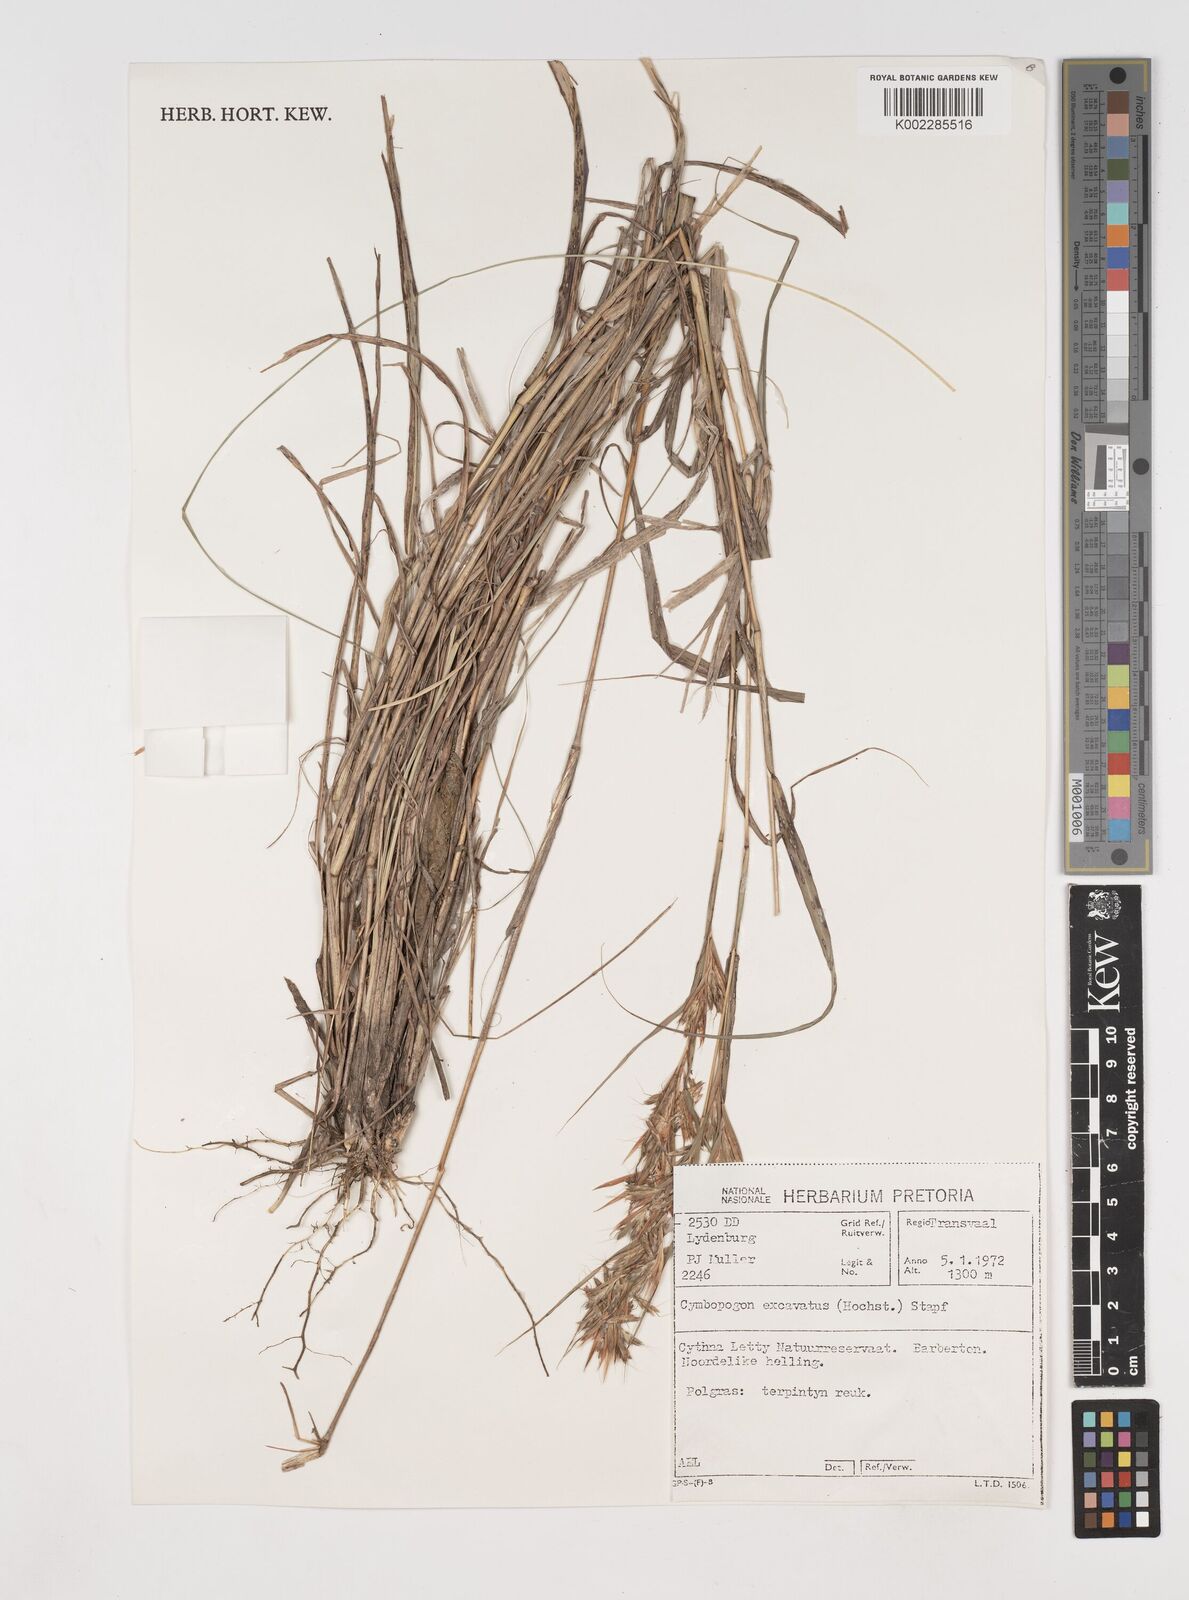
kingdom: Plantae
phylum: Tracheophyta
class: Liliopsida
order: Poales
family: Poaceae
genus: Cymbopogon
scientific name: Cymbopogon caesius
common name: Kachi grass
